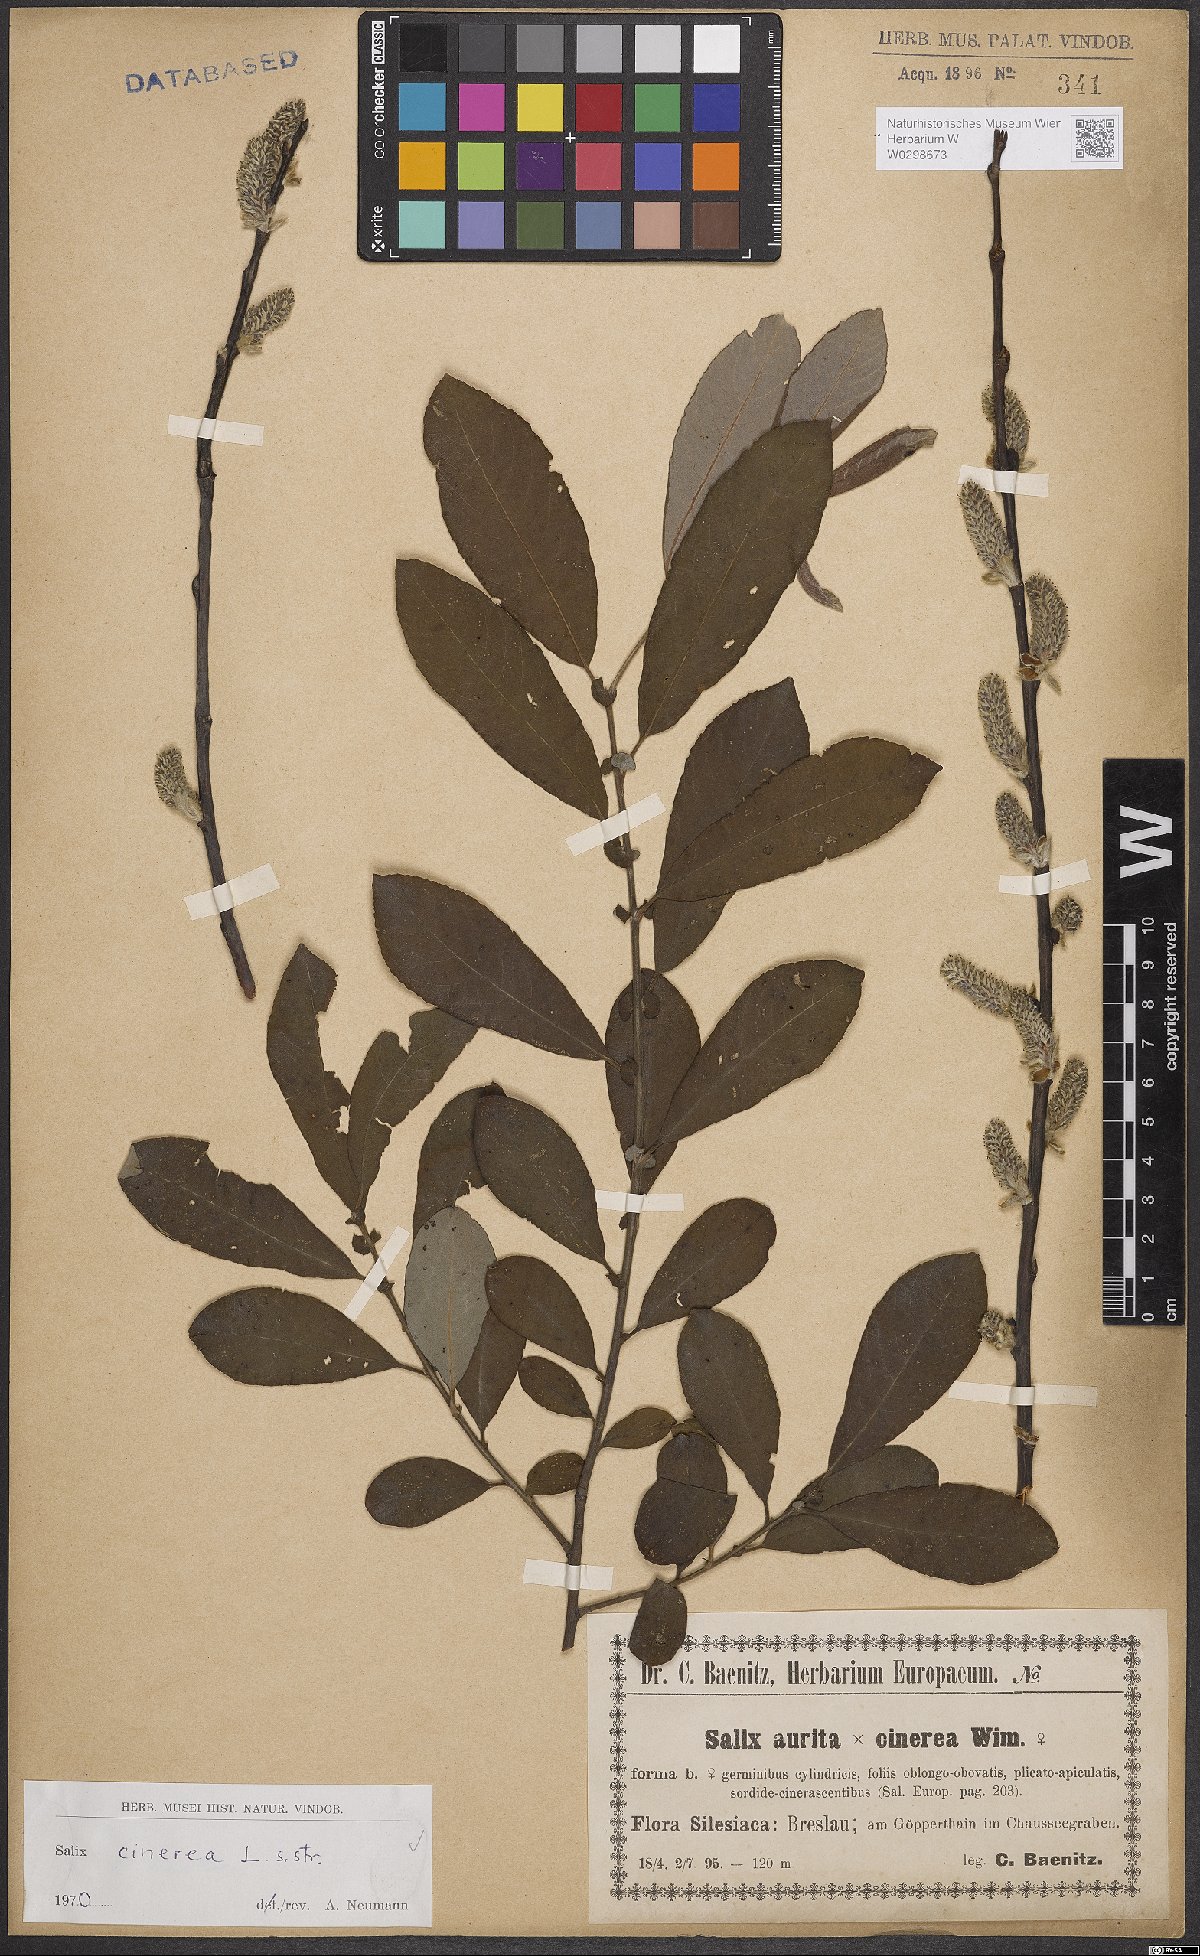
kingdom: Plantae
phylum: Tracheophyta
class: Magnoliopsida
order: Malpighiales
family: Salicaceae
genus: Salix
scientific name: Salix cinerea
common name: Common sallow
